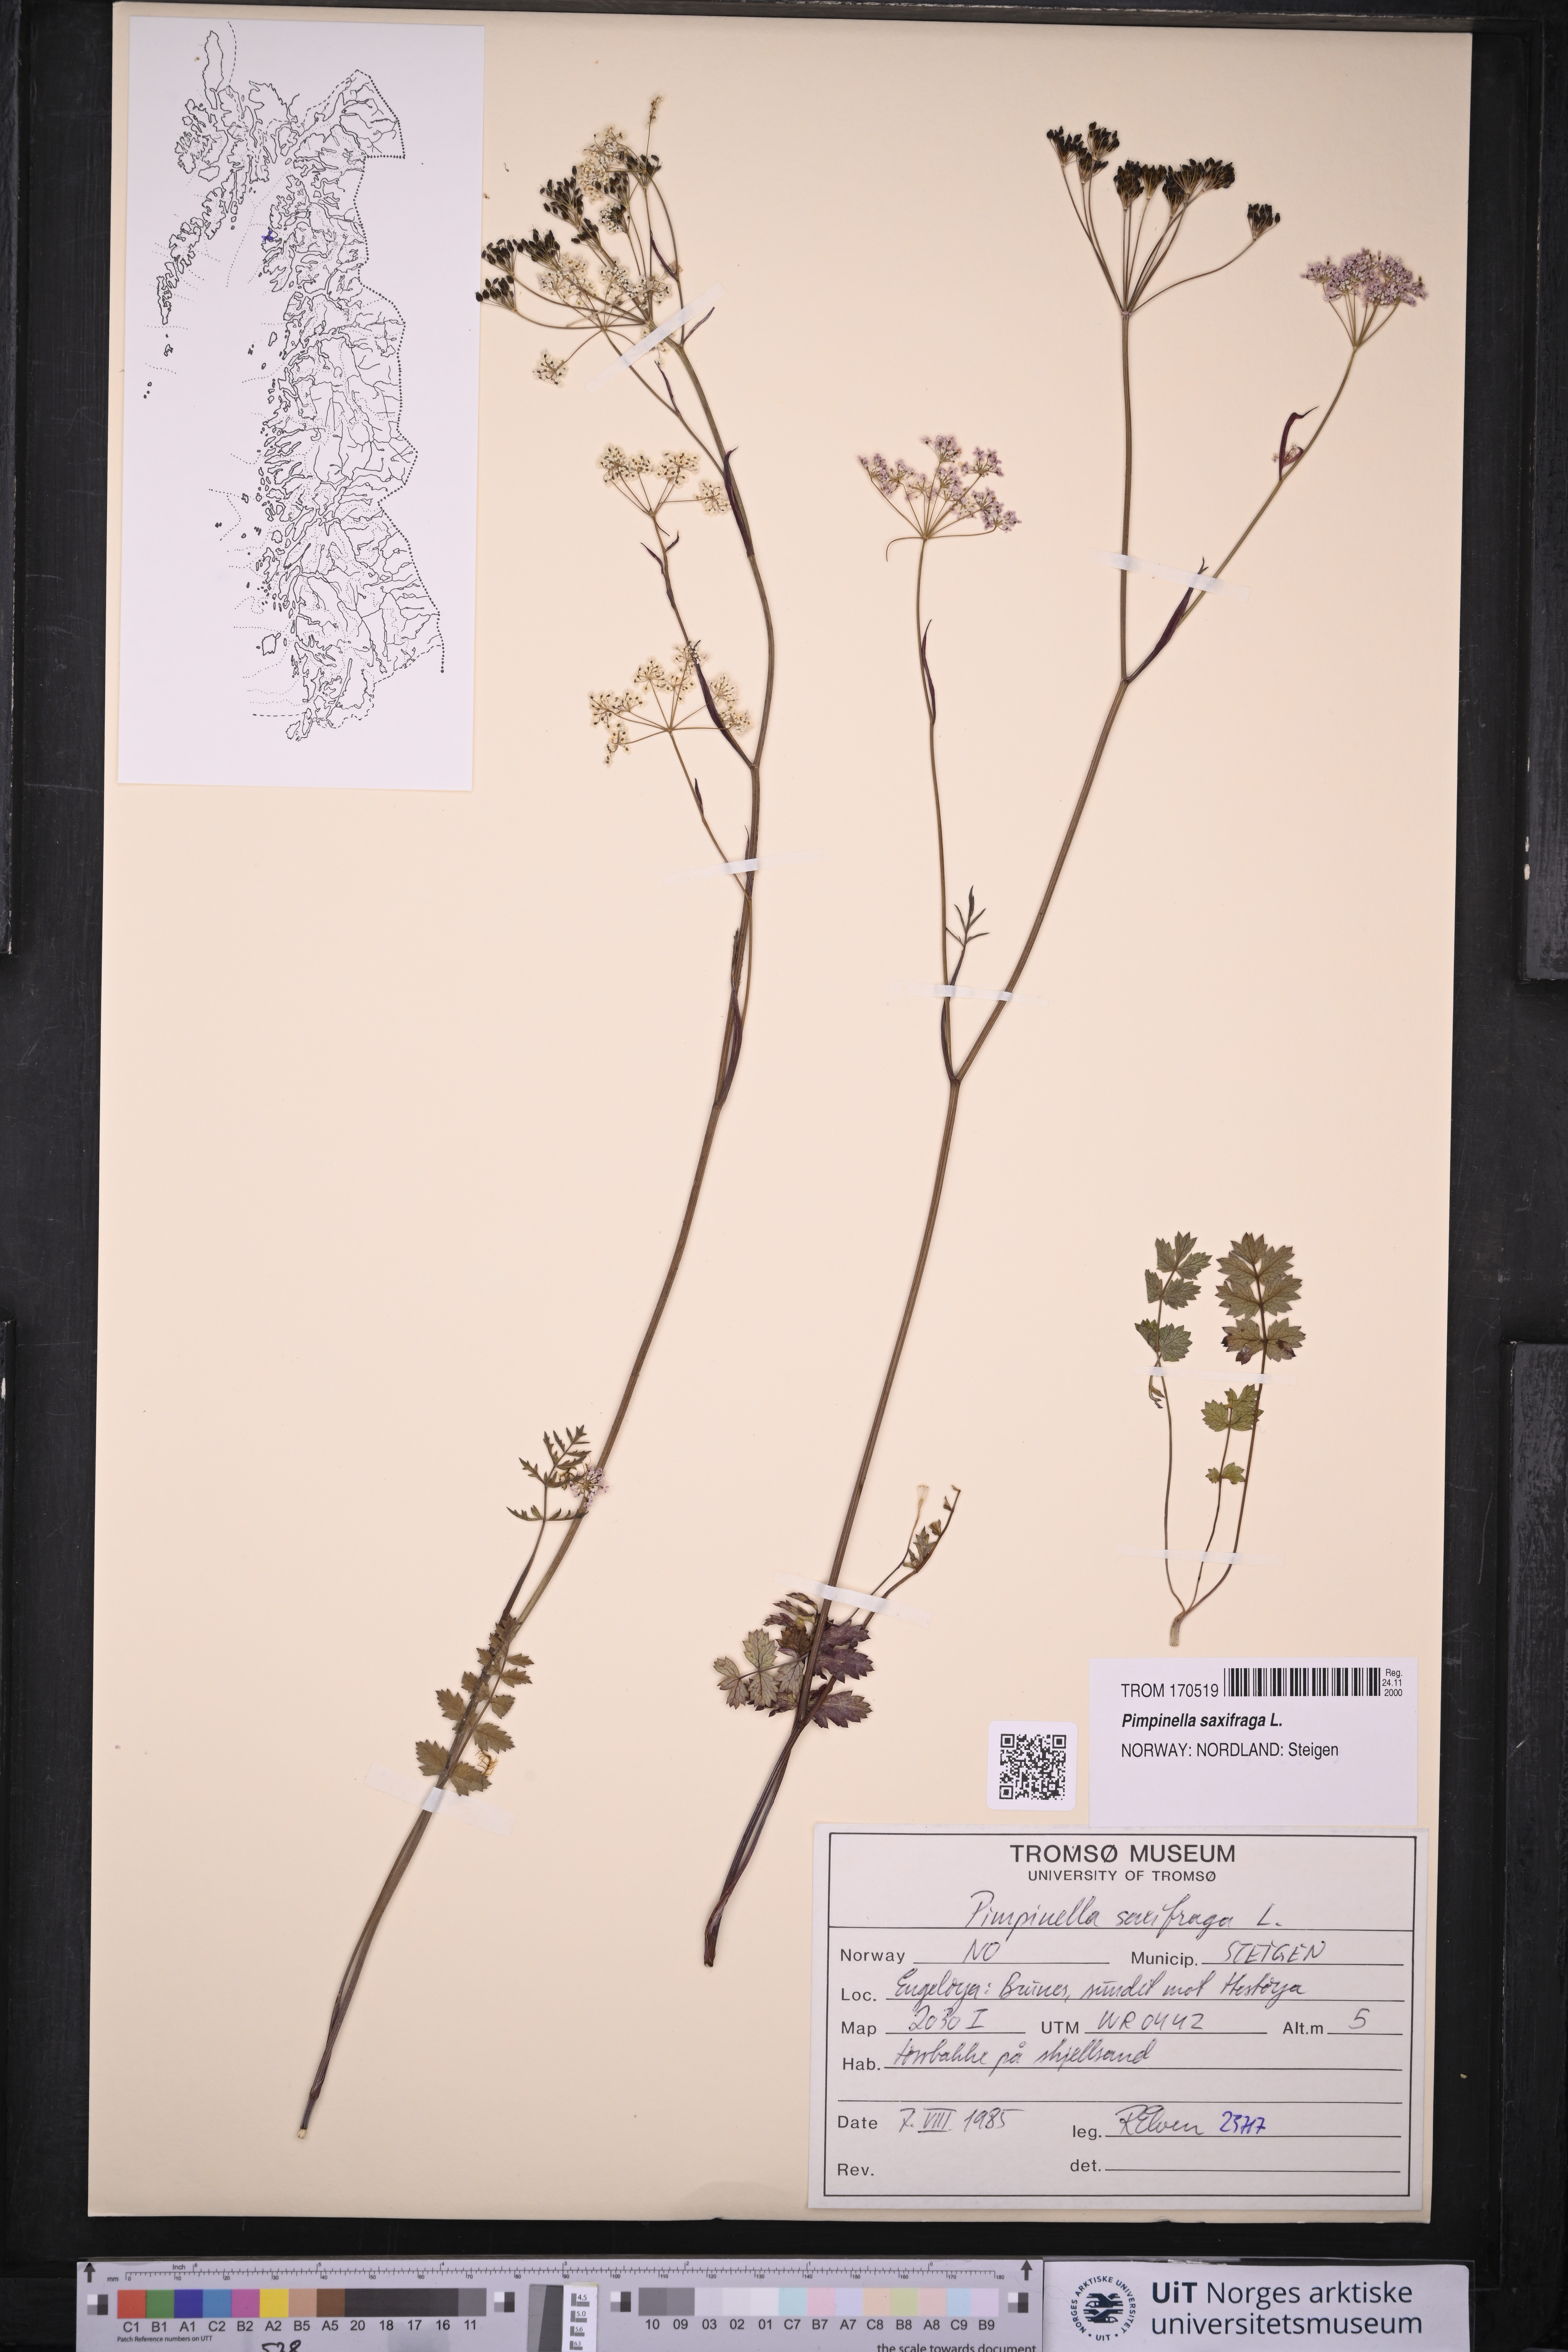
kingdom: Plantae
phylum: Tracheophyta
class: Magnoliopsida
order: Apiales
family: Apiaceae
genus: Pimpinella
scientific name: Pimpinella saxifraga
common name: Burnet-saxifrage
